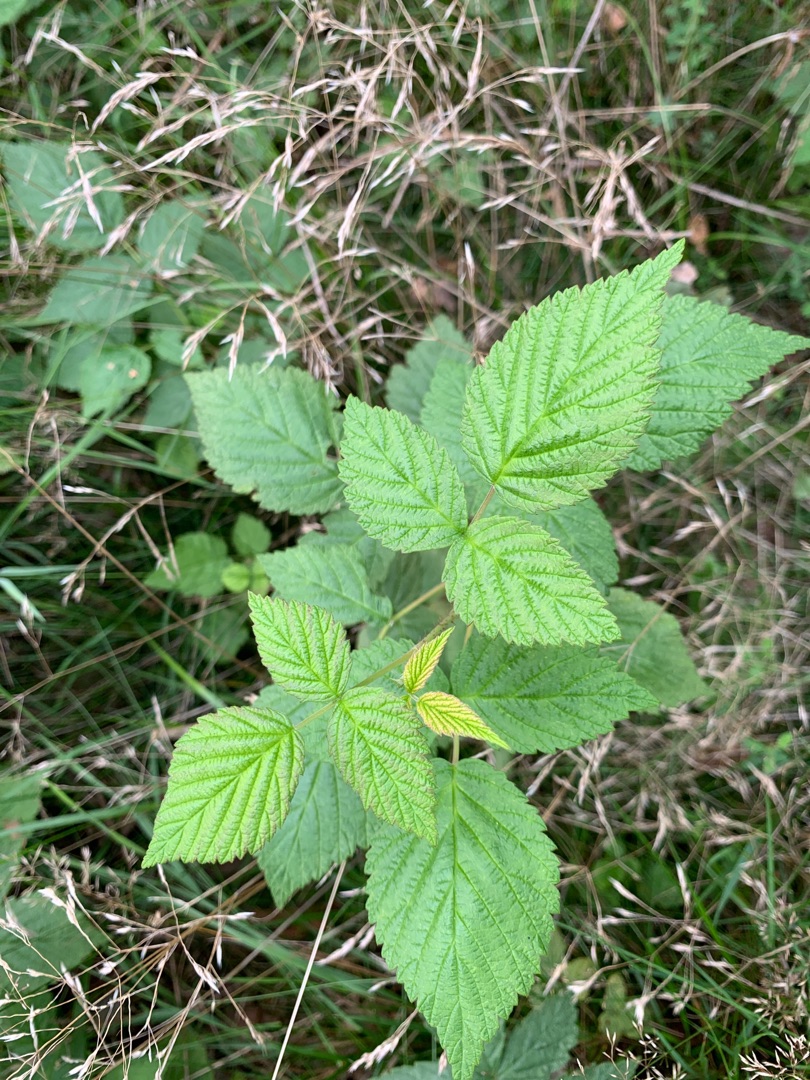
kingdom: Plantae
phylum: Tracheophyta
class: Magnoliopsida
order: Rosales
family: Rosaceae
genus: Rubus
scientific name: Rubus idaeus
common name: Hindbær
